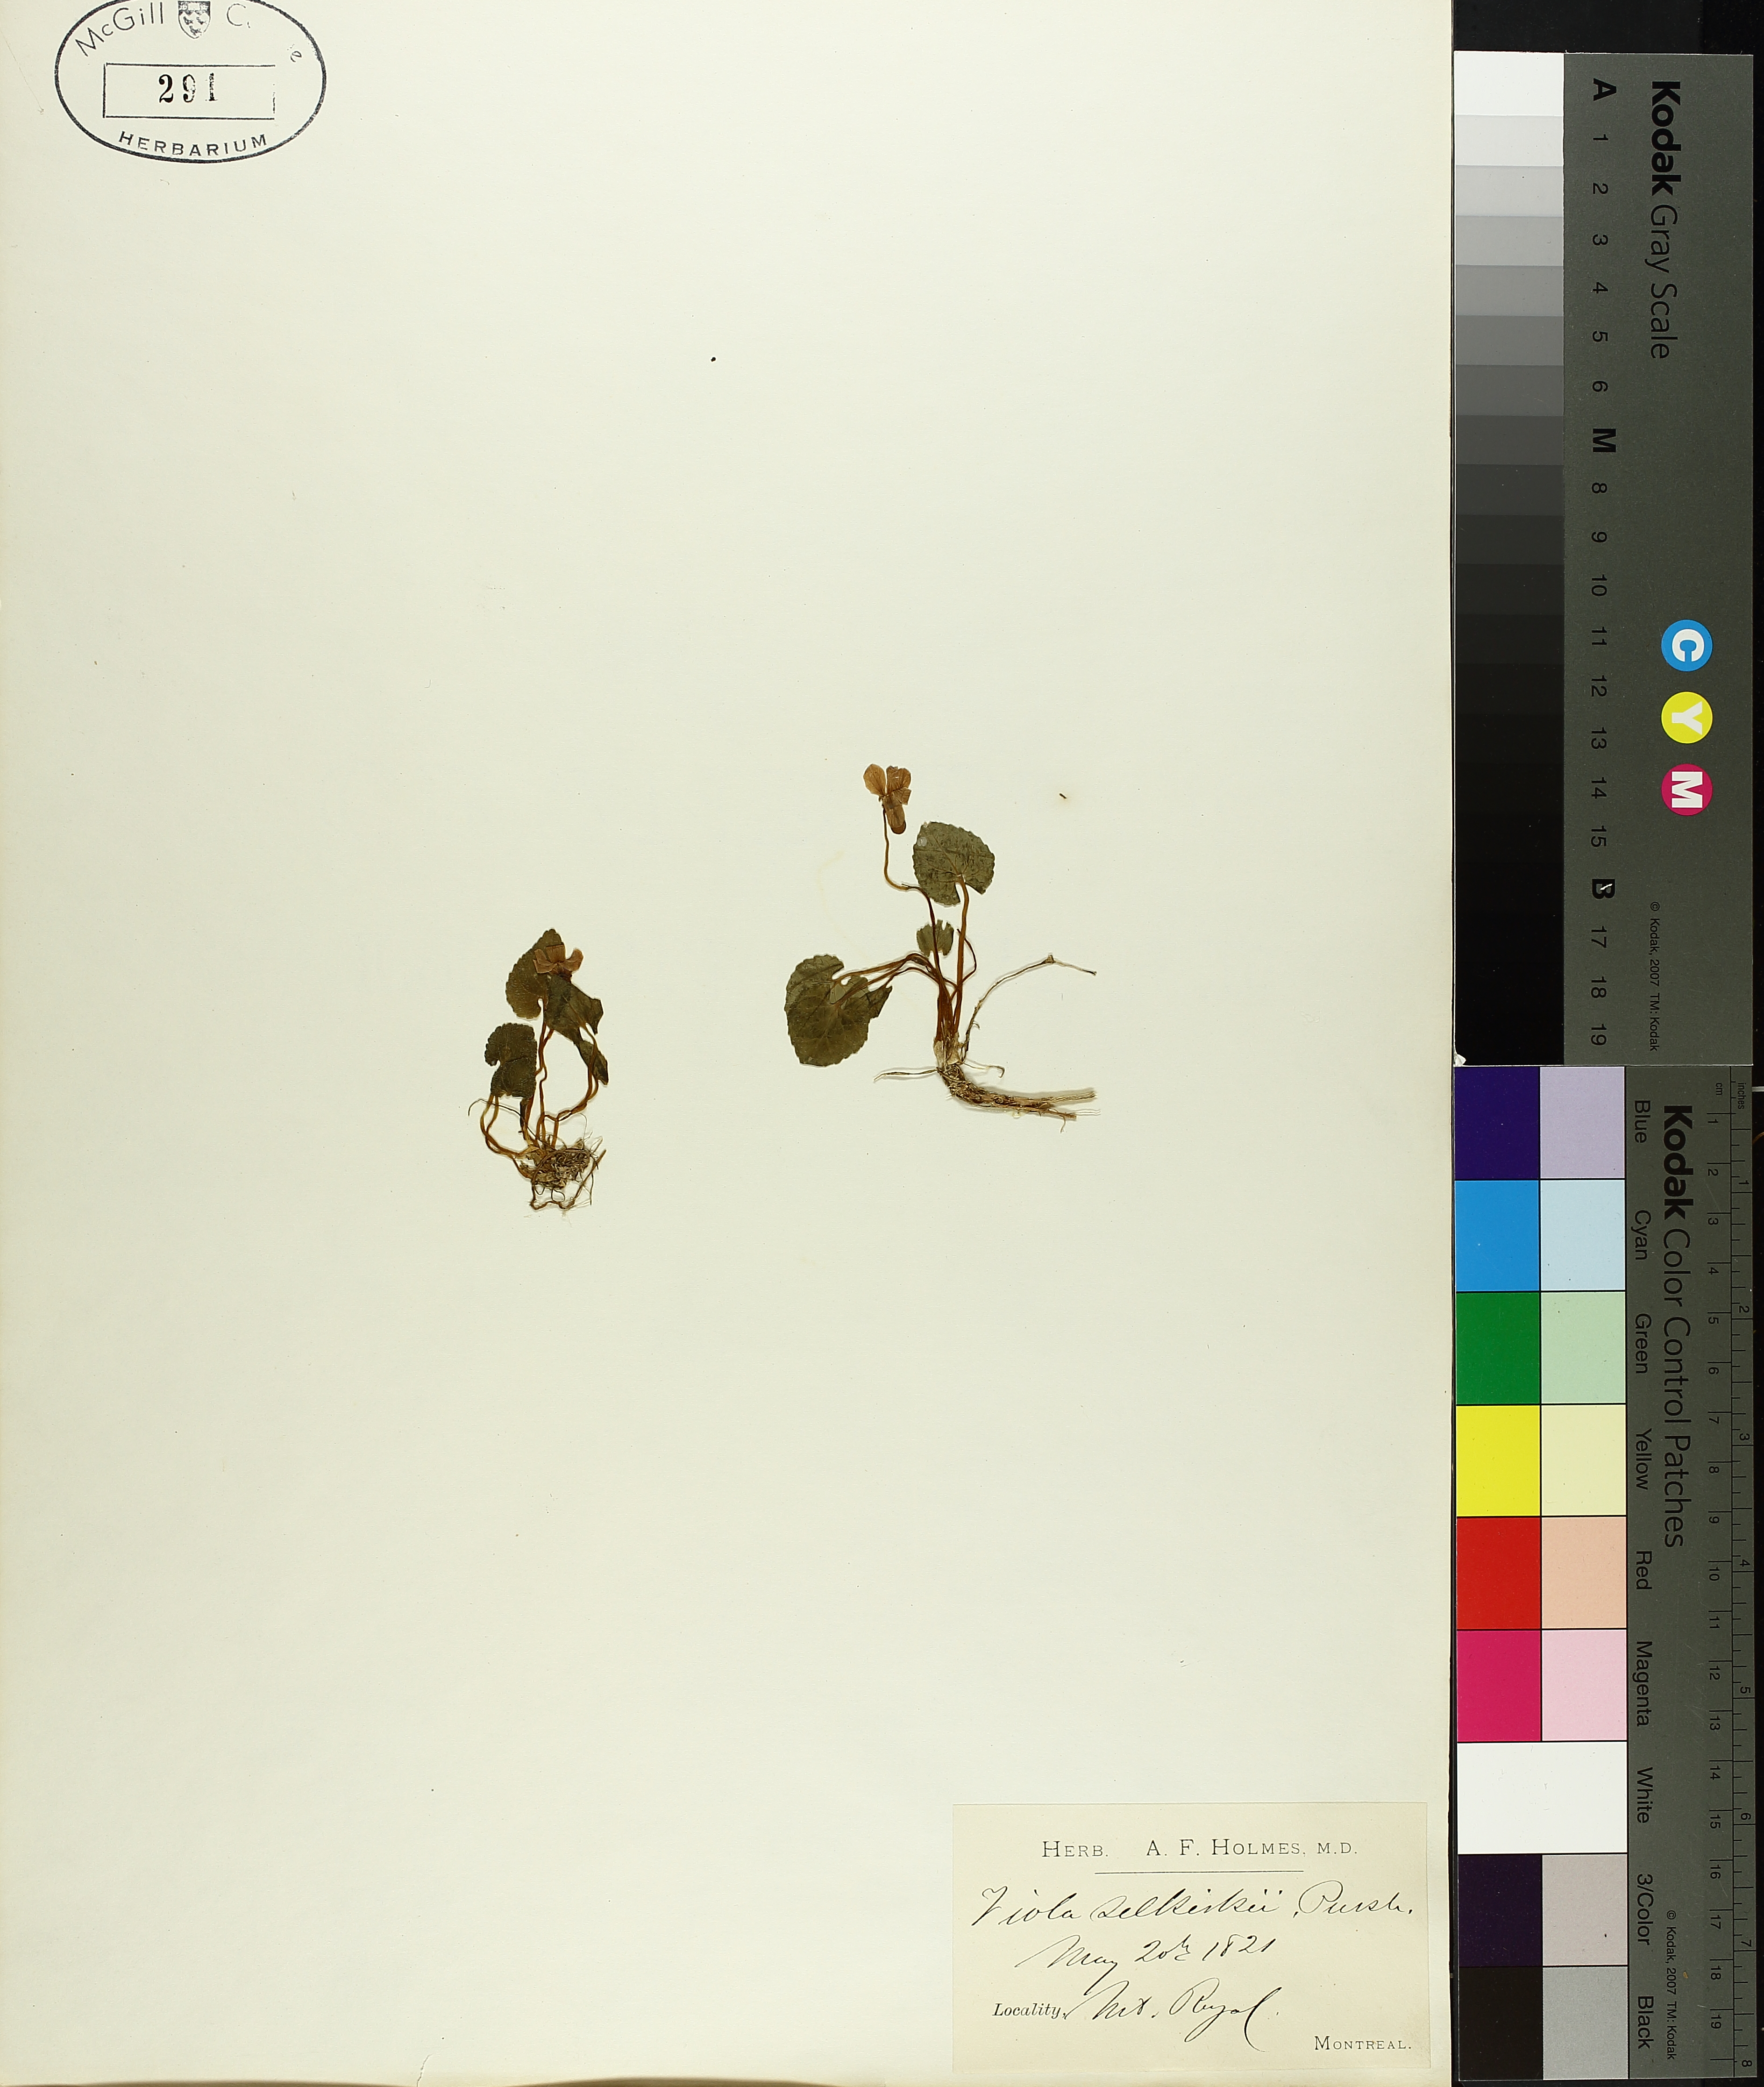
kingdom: Plantae
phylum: Tracheophyta
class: Magnoliopsida
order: Malpighiales
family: Violaceae
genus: Viola
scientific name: Viola selkirkii
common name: Selkirk's violet
